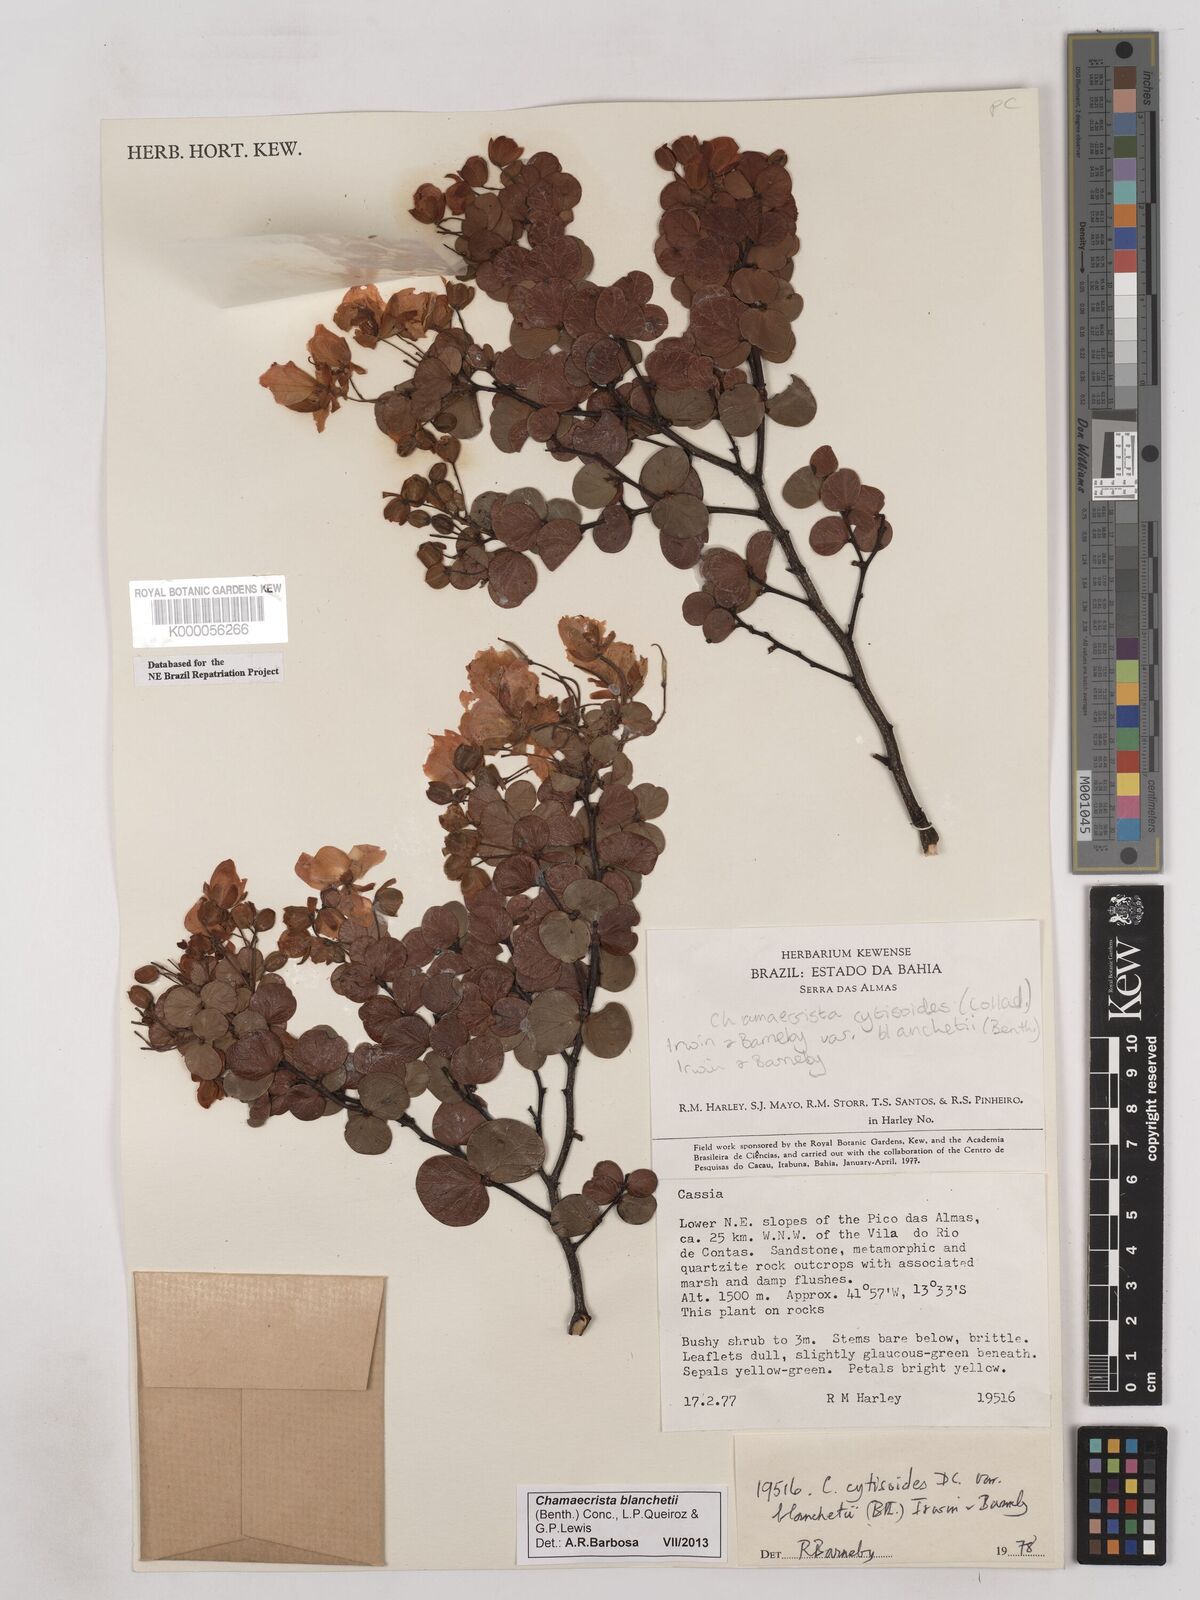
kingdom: Plantae
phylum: Tracheophyta
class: Magnoliopsida
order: Fabales
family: Fabaceae
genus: Chamaecrista
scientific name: Chamaecrista cytisoides
